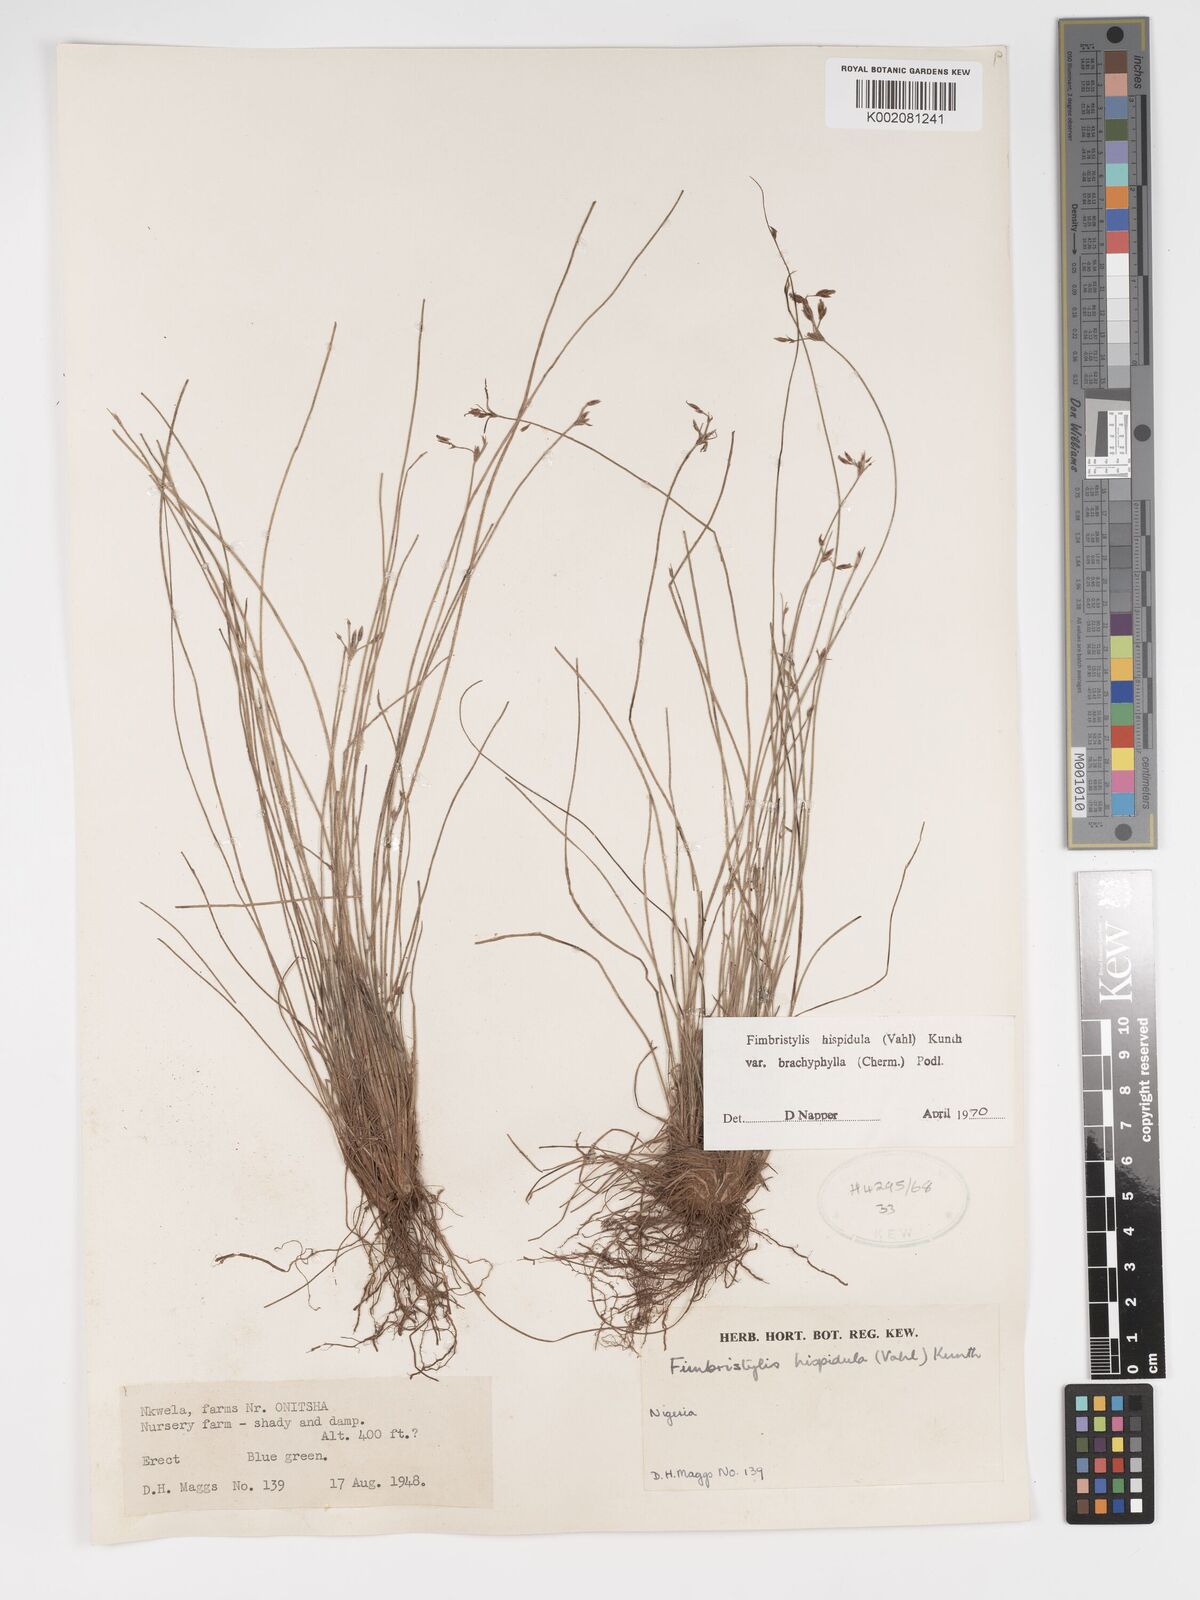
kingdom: Plantae
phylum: Tracheophyta
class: Liliopsida
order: Poales
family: Cyperaceae
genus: Bulbostylis
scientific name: Bulbostylis hispidula
